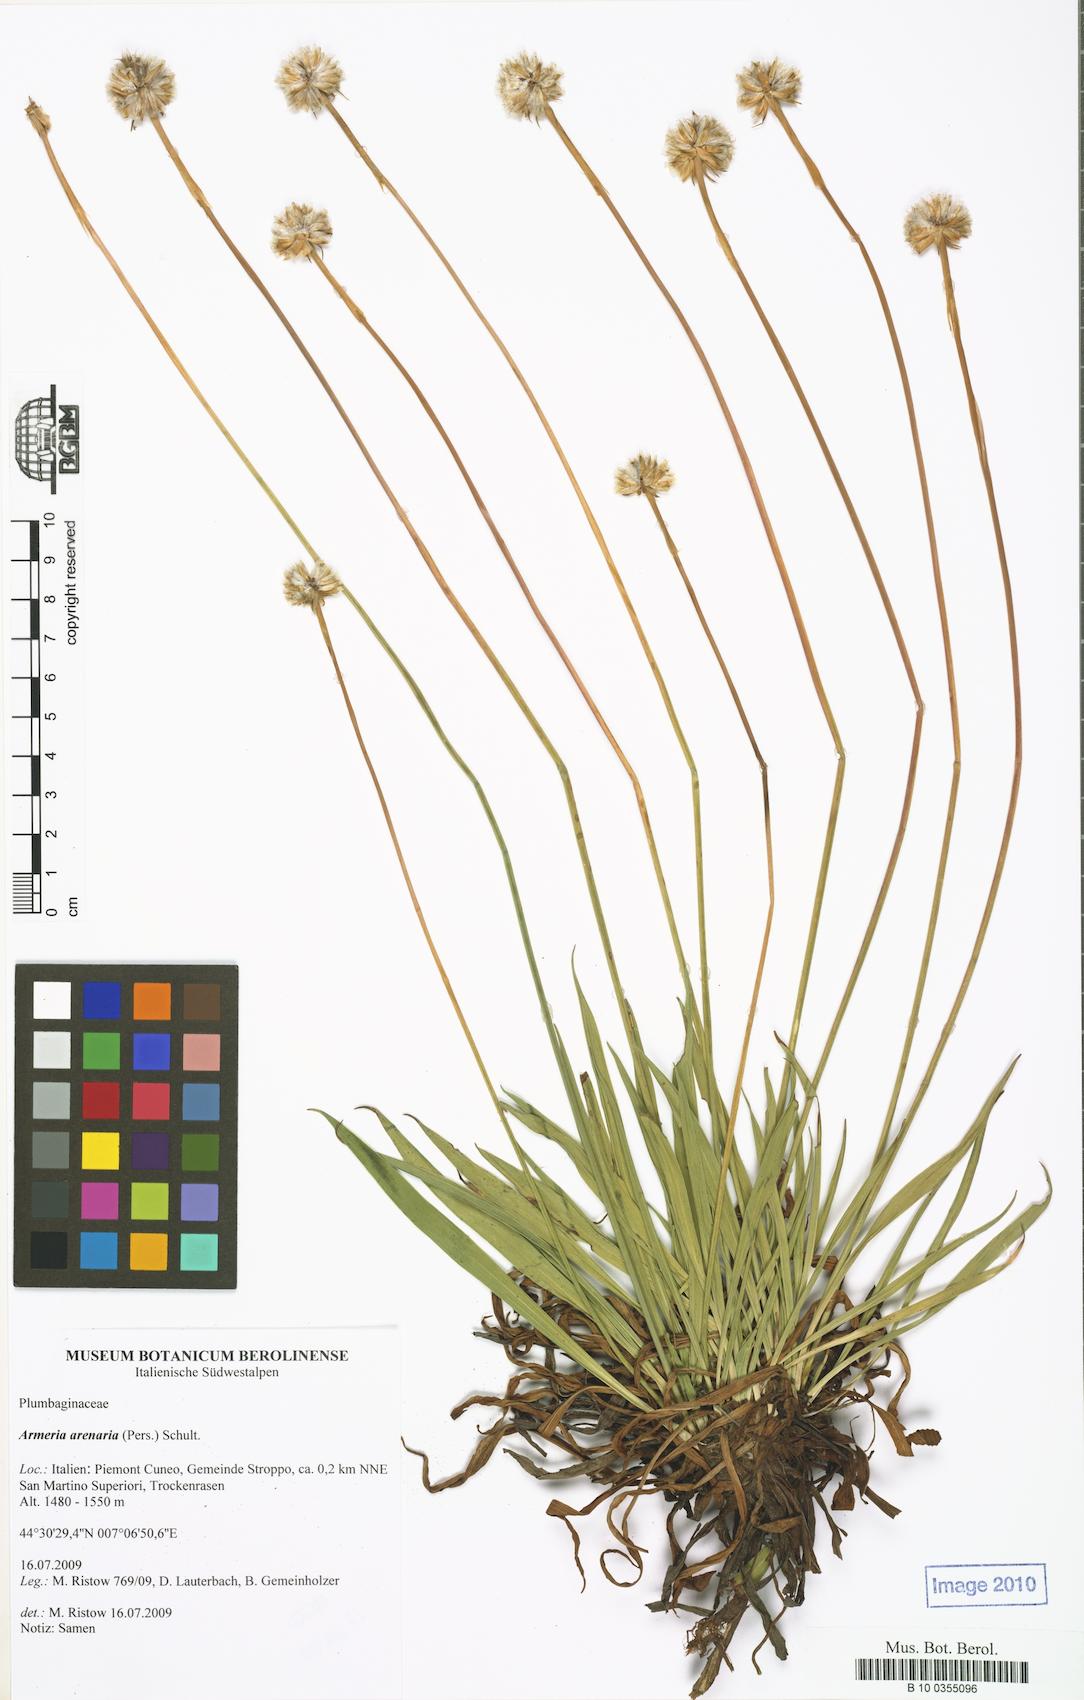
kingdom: Plantae
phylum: Tracheophyta
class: Magnoliopsida
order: Caryophyllales
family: Plumbaginaceae
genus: Armeria
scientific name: Armeria arenaria
